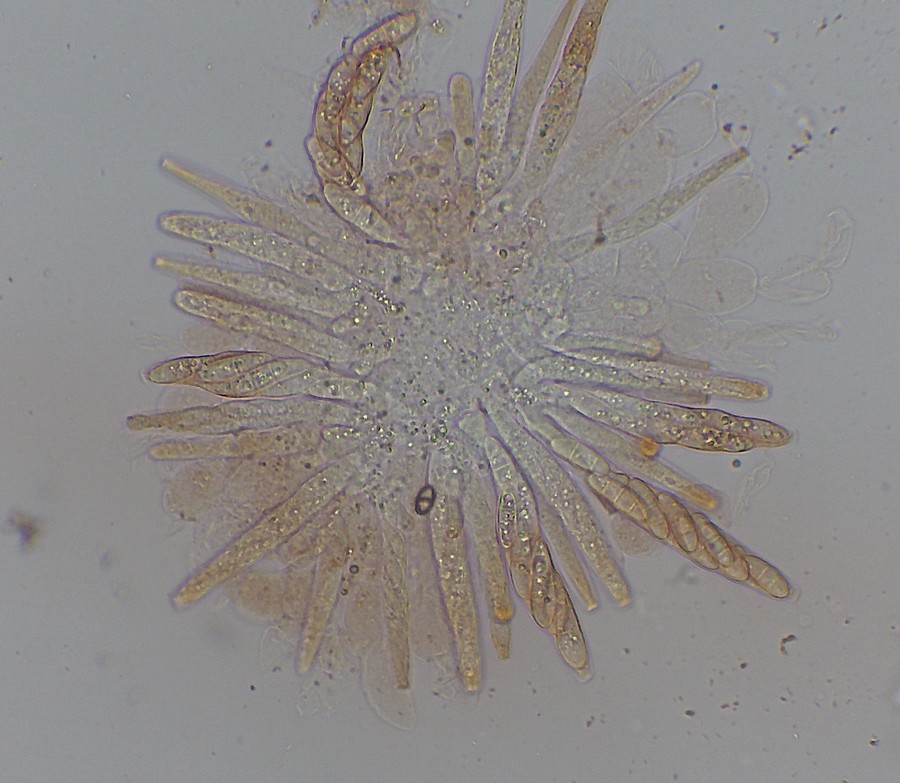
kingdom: Fungi
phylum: Ascomycota
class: Sordariomycetes
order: Hypocreales
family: Nectriaceae
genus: Gibberella
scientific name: Gibberella
